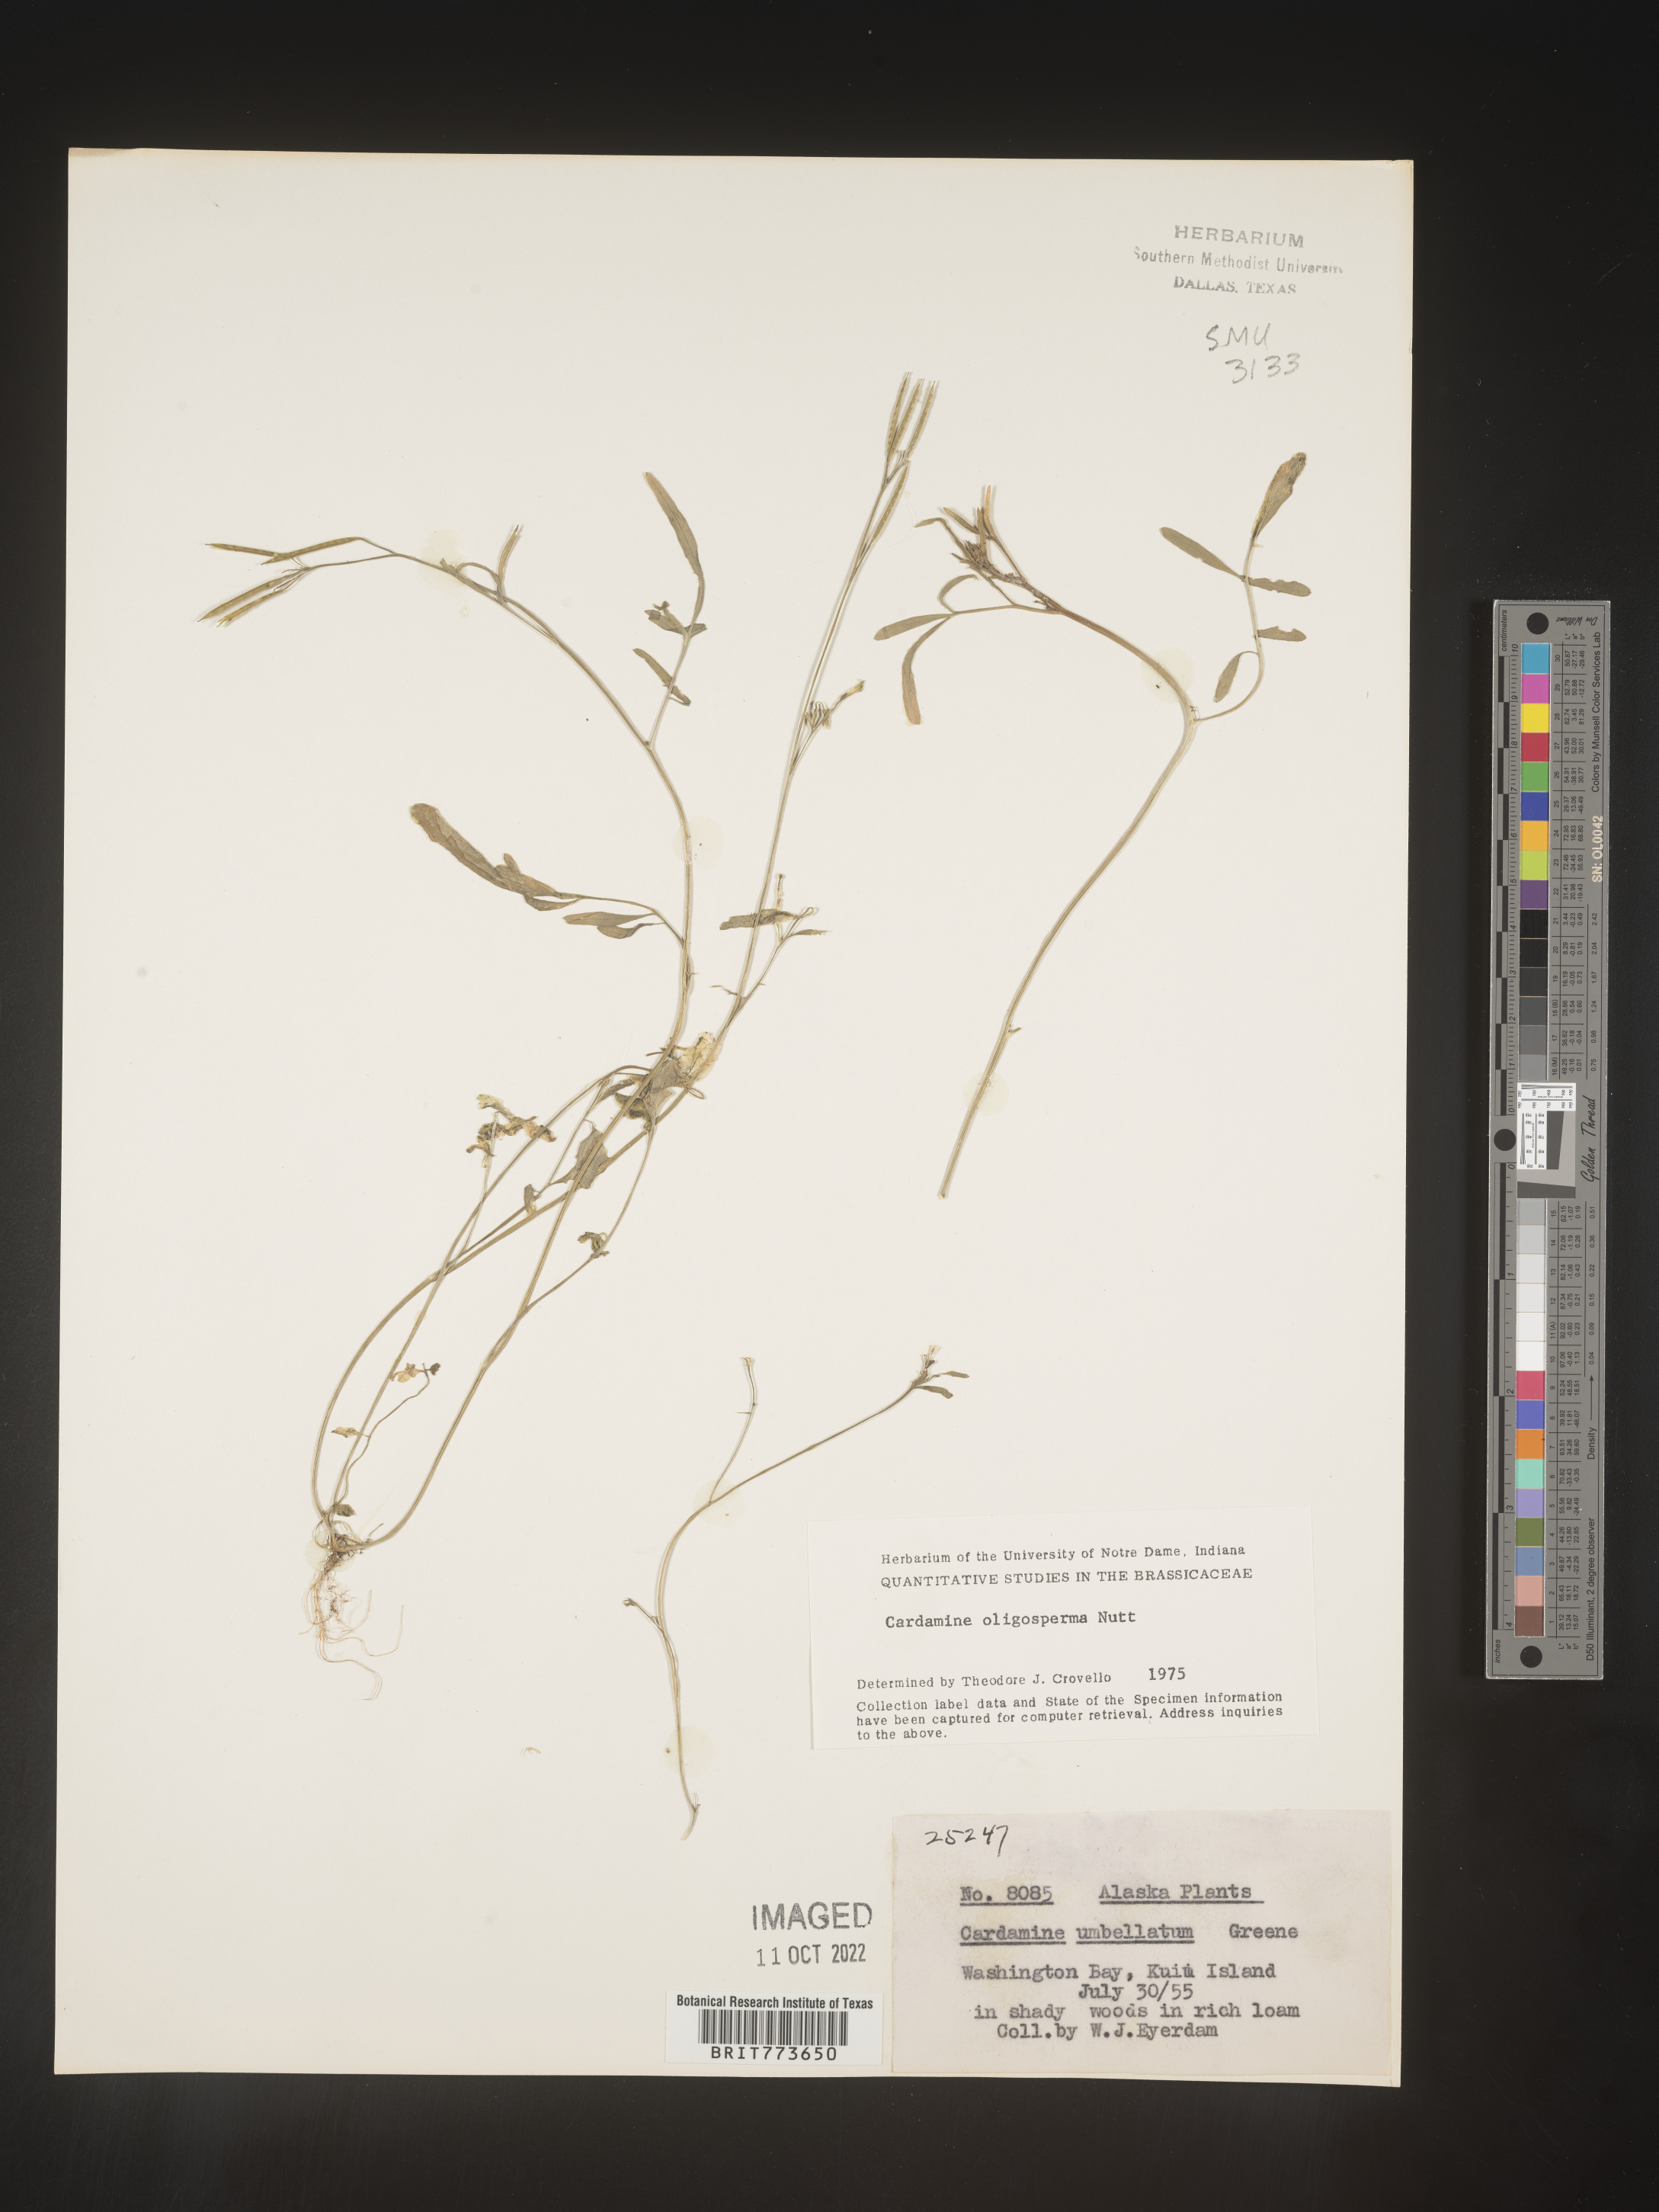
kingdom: Plantae
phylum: Tracheophyta
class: Magnoliopsida
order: Brassicales
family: Brassicaceae
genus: Cardamine
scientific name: Cardamine
